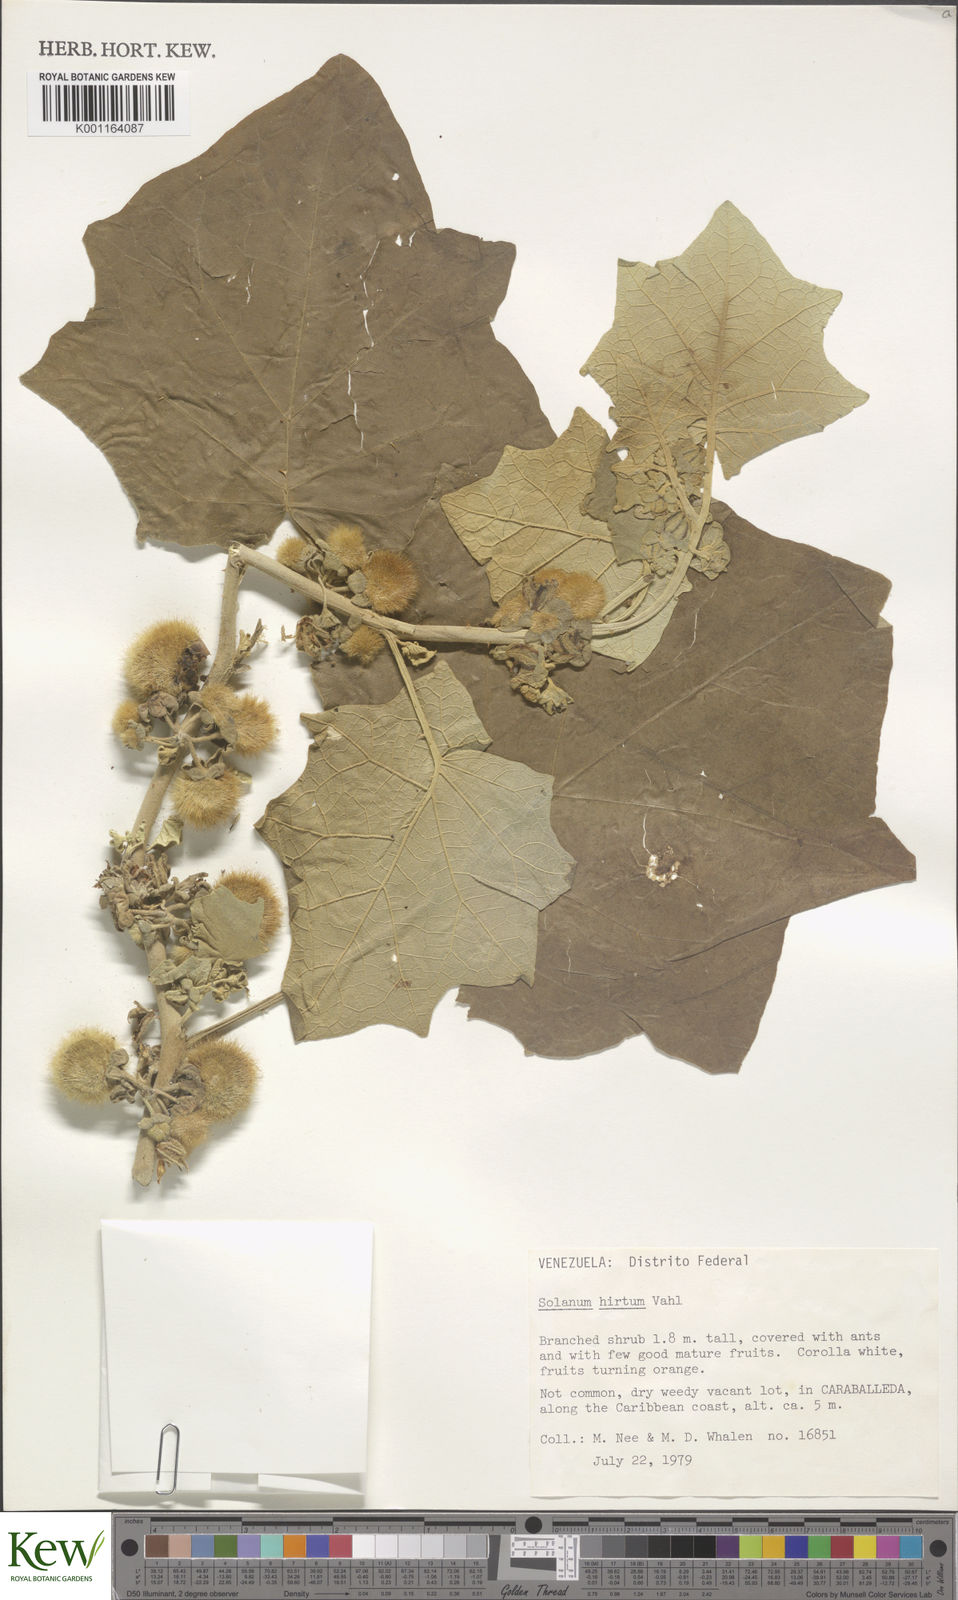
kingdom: Plantae
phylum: Tracheophyta
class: Magnoliopsida
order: Solanales
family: Solanaceae
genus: Solanum
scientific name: Solanum hirtum
